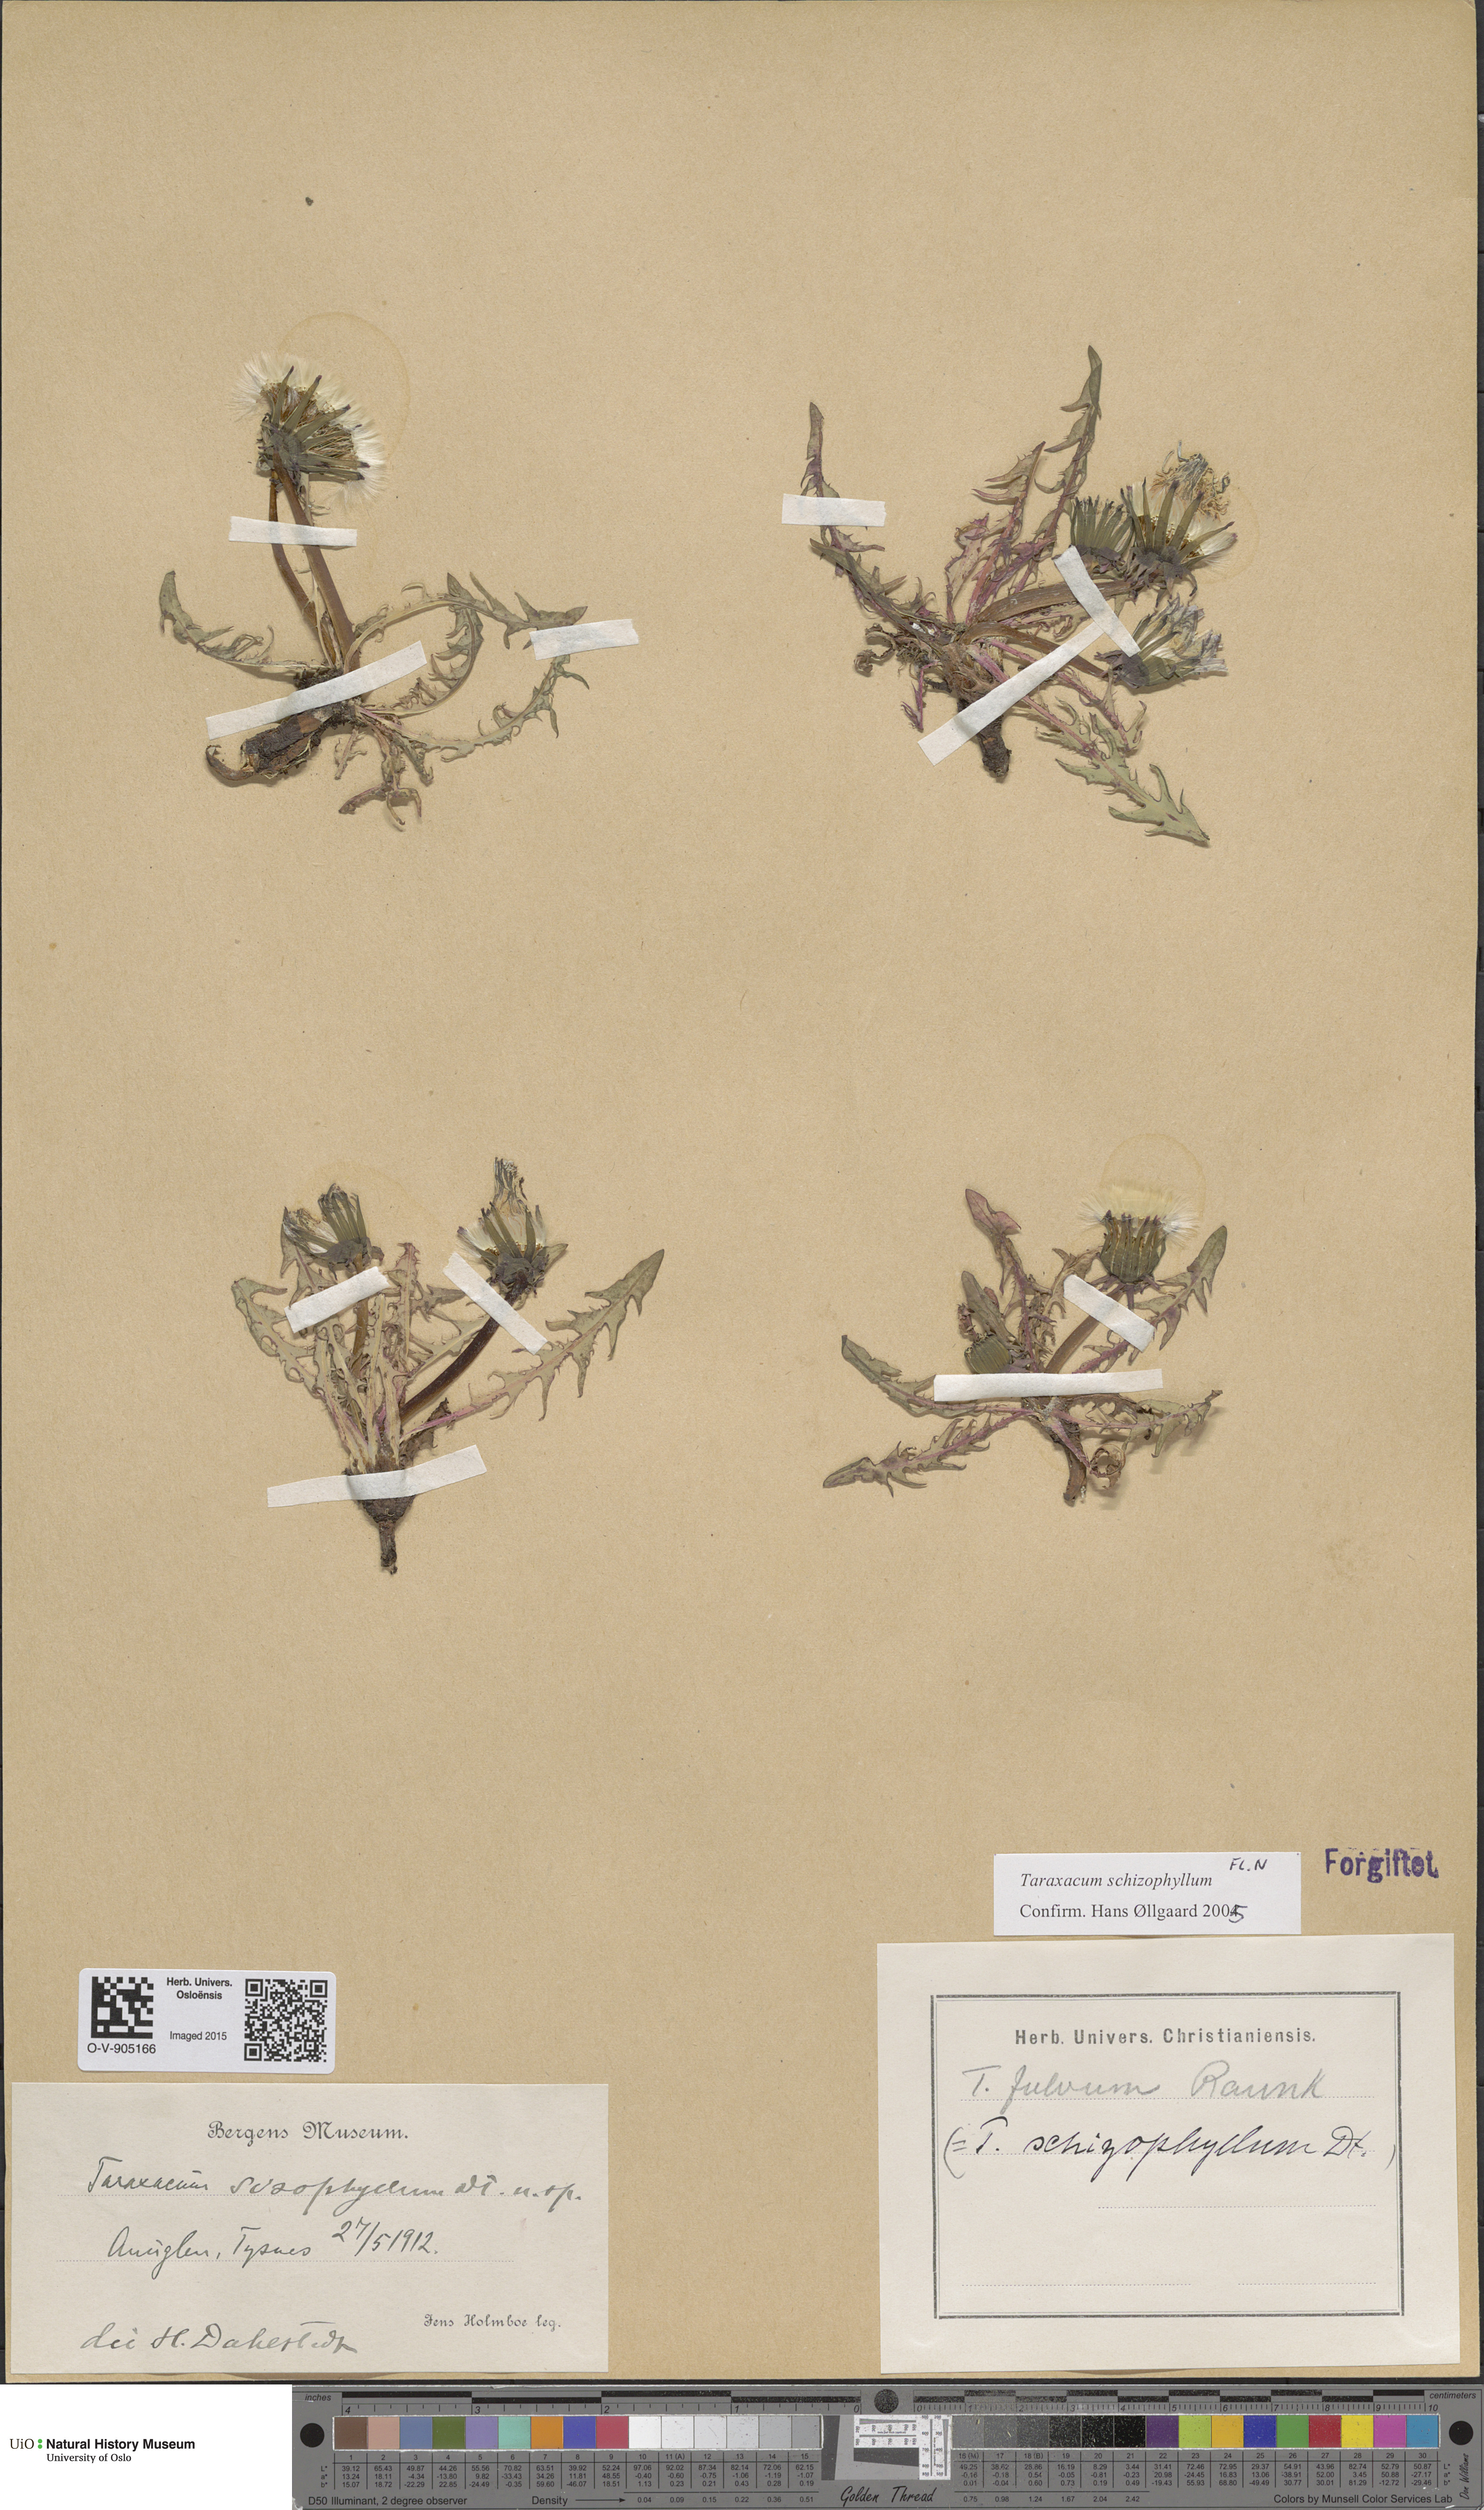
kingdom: Plantae
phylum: Tracheophyta
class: Magnoliopsida
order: Asterales
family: Asteraceae
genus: Taraxacum
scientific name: Taraxacum fulvum
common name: Cinnamon-fruited dandelion
